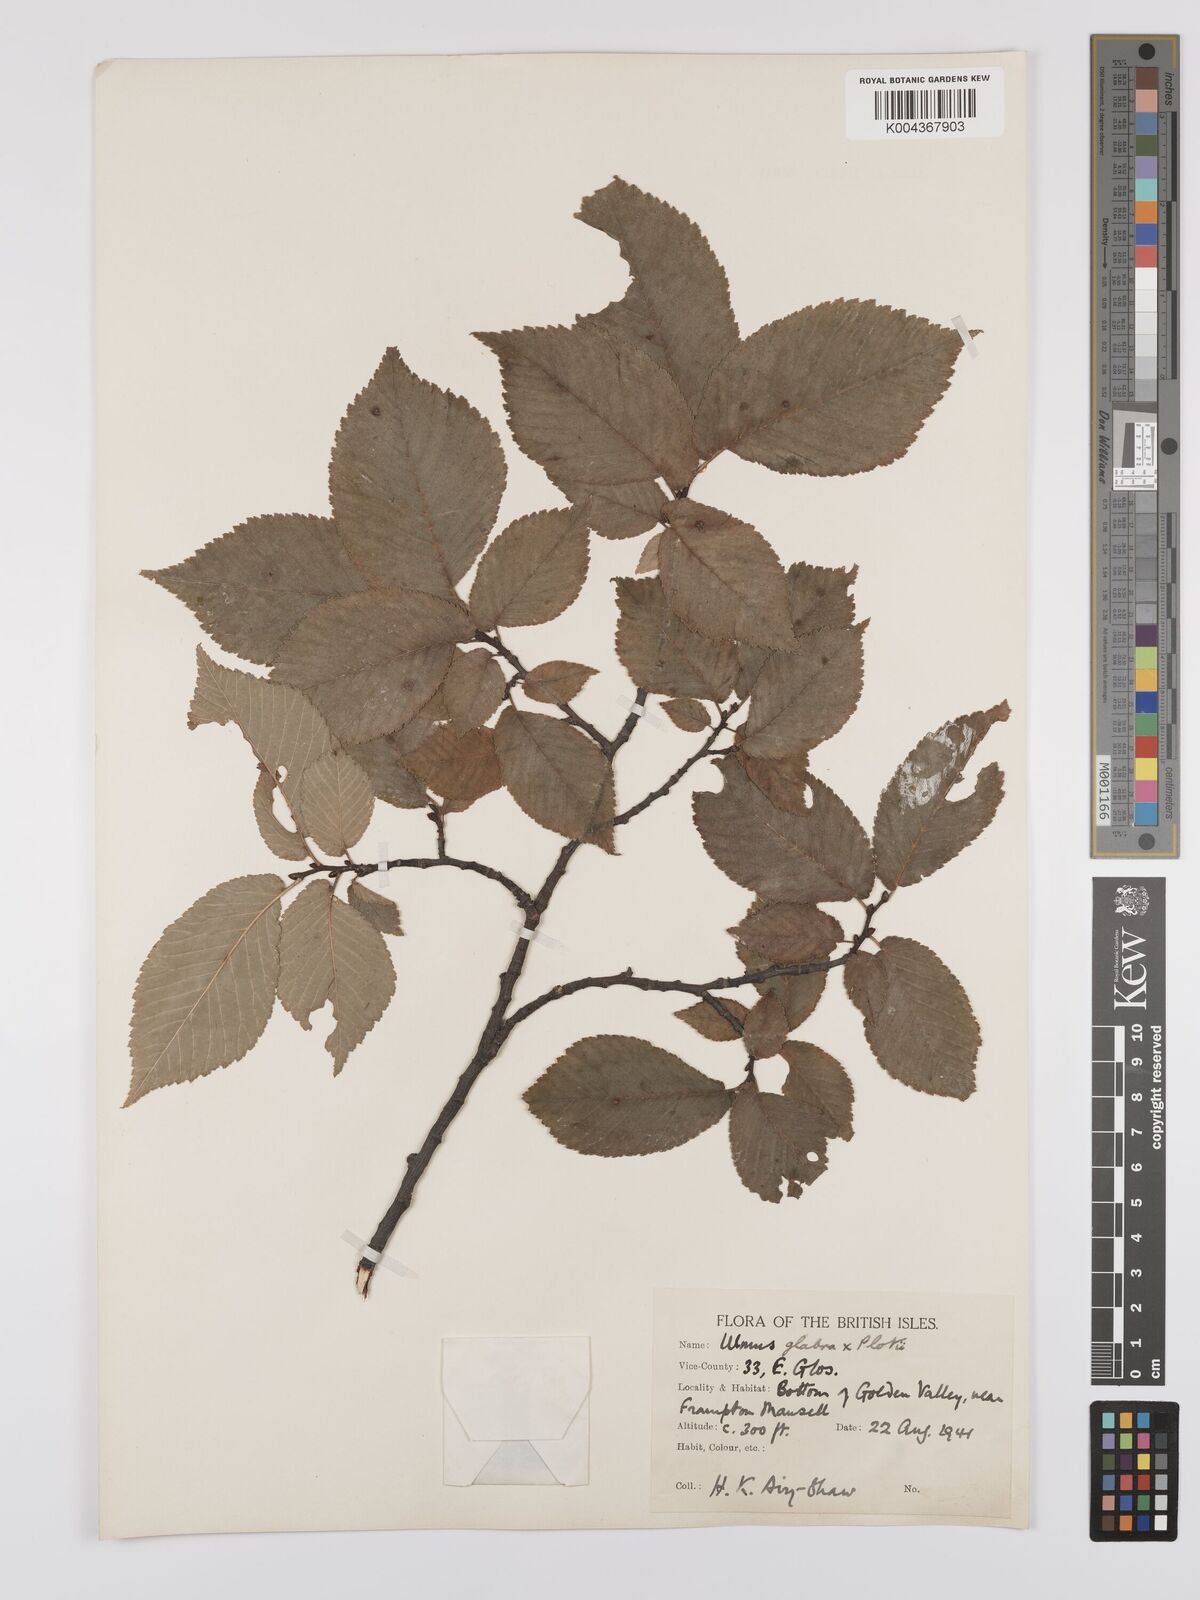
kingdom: Plantae
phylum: Tracheophyta
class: Magnoliopsida
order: Rosales
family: Ulmaceae
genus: Ulmus
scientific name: Ulmus glabra
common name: Wych elm
